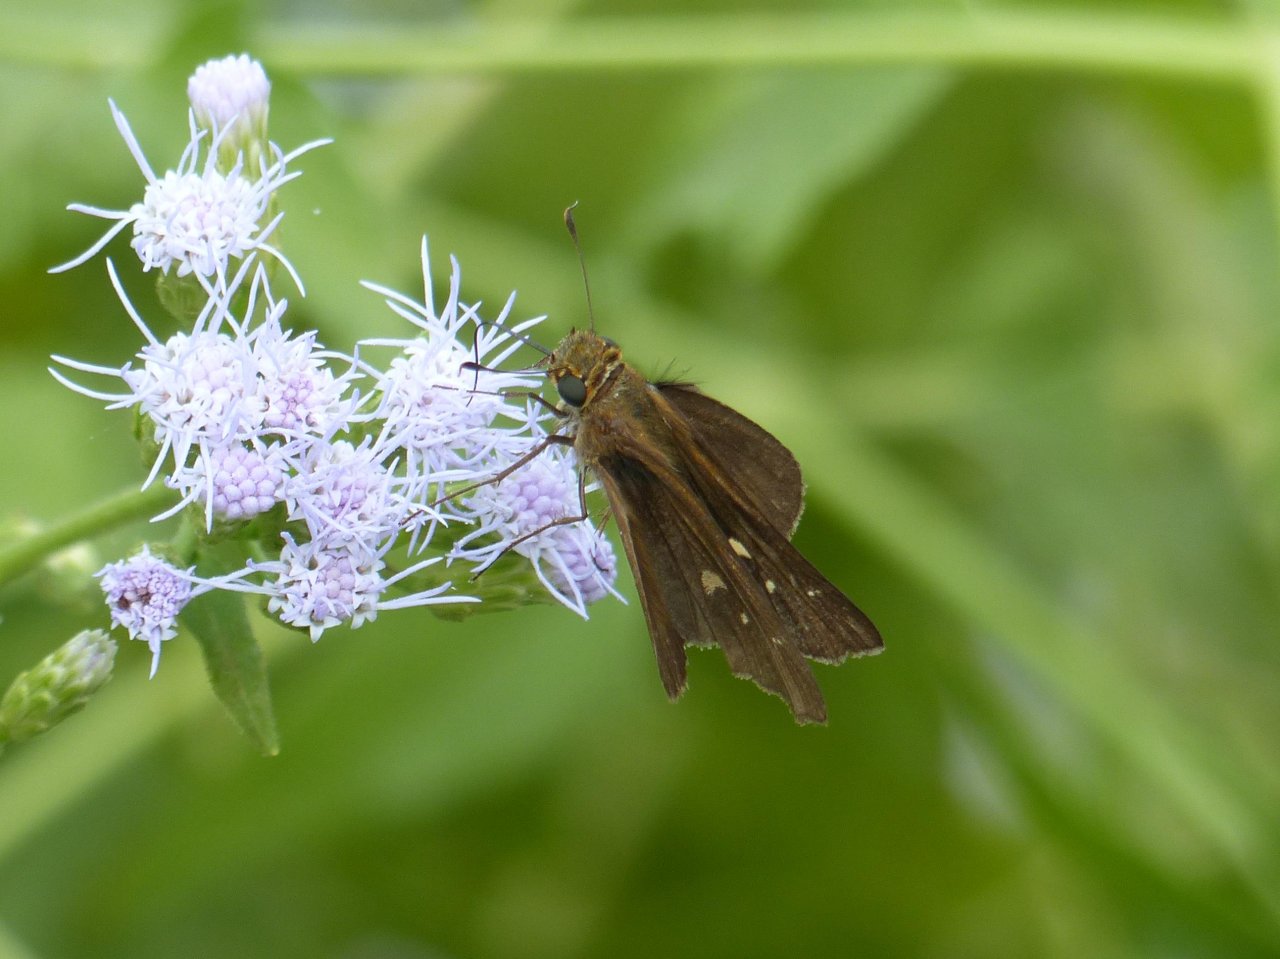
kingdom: Animalia
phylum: Arthropoda
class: Insecta
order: Lepidoptera
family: Hesperiidae
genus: Panoquina
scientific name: Panoquina ocola
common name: Ocola Skipper
